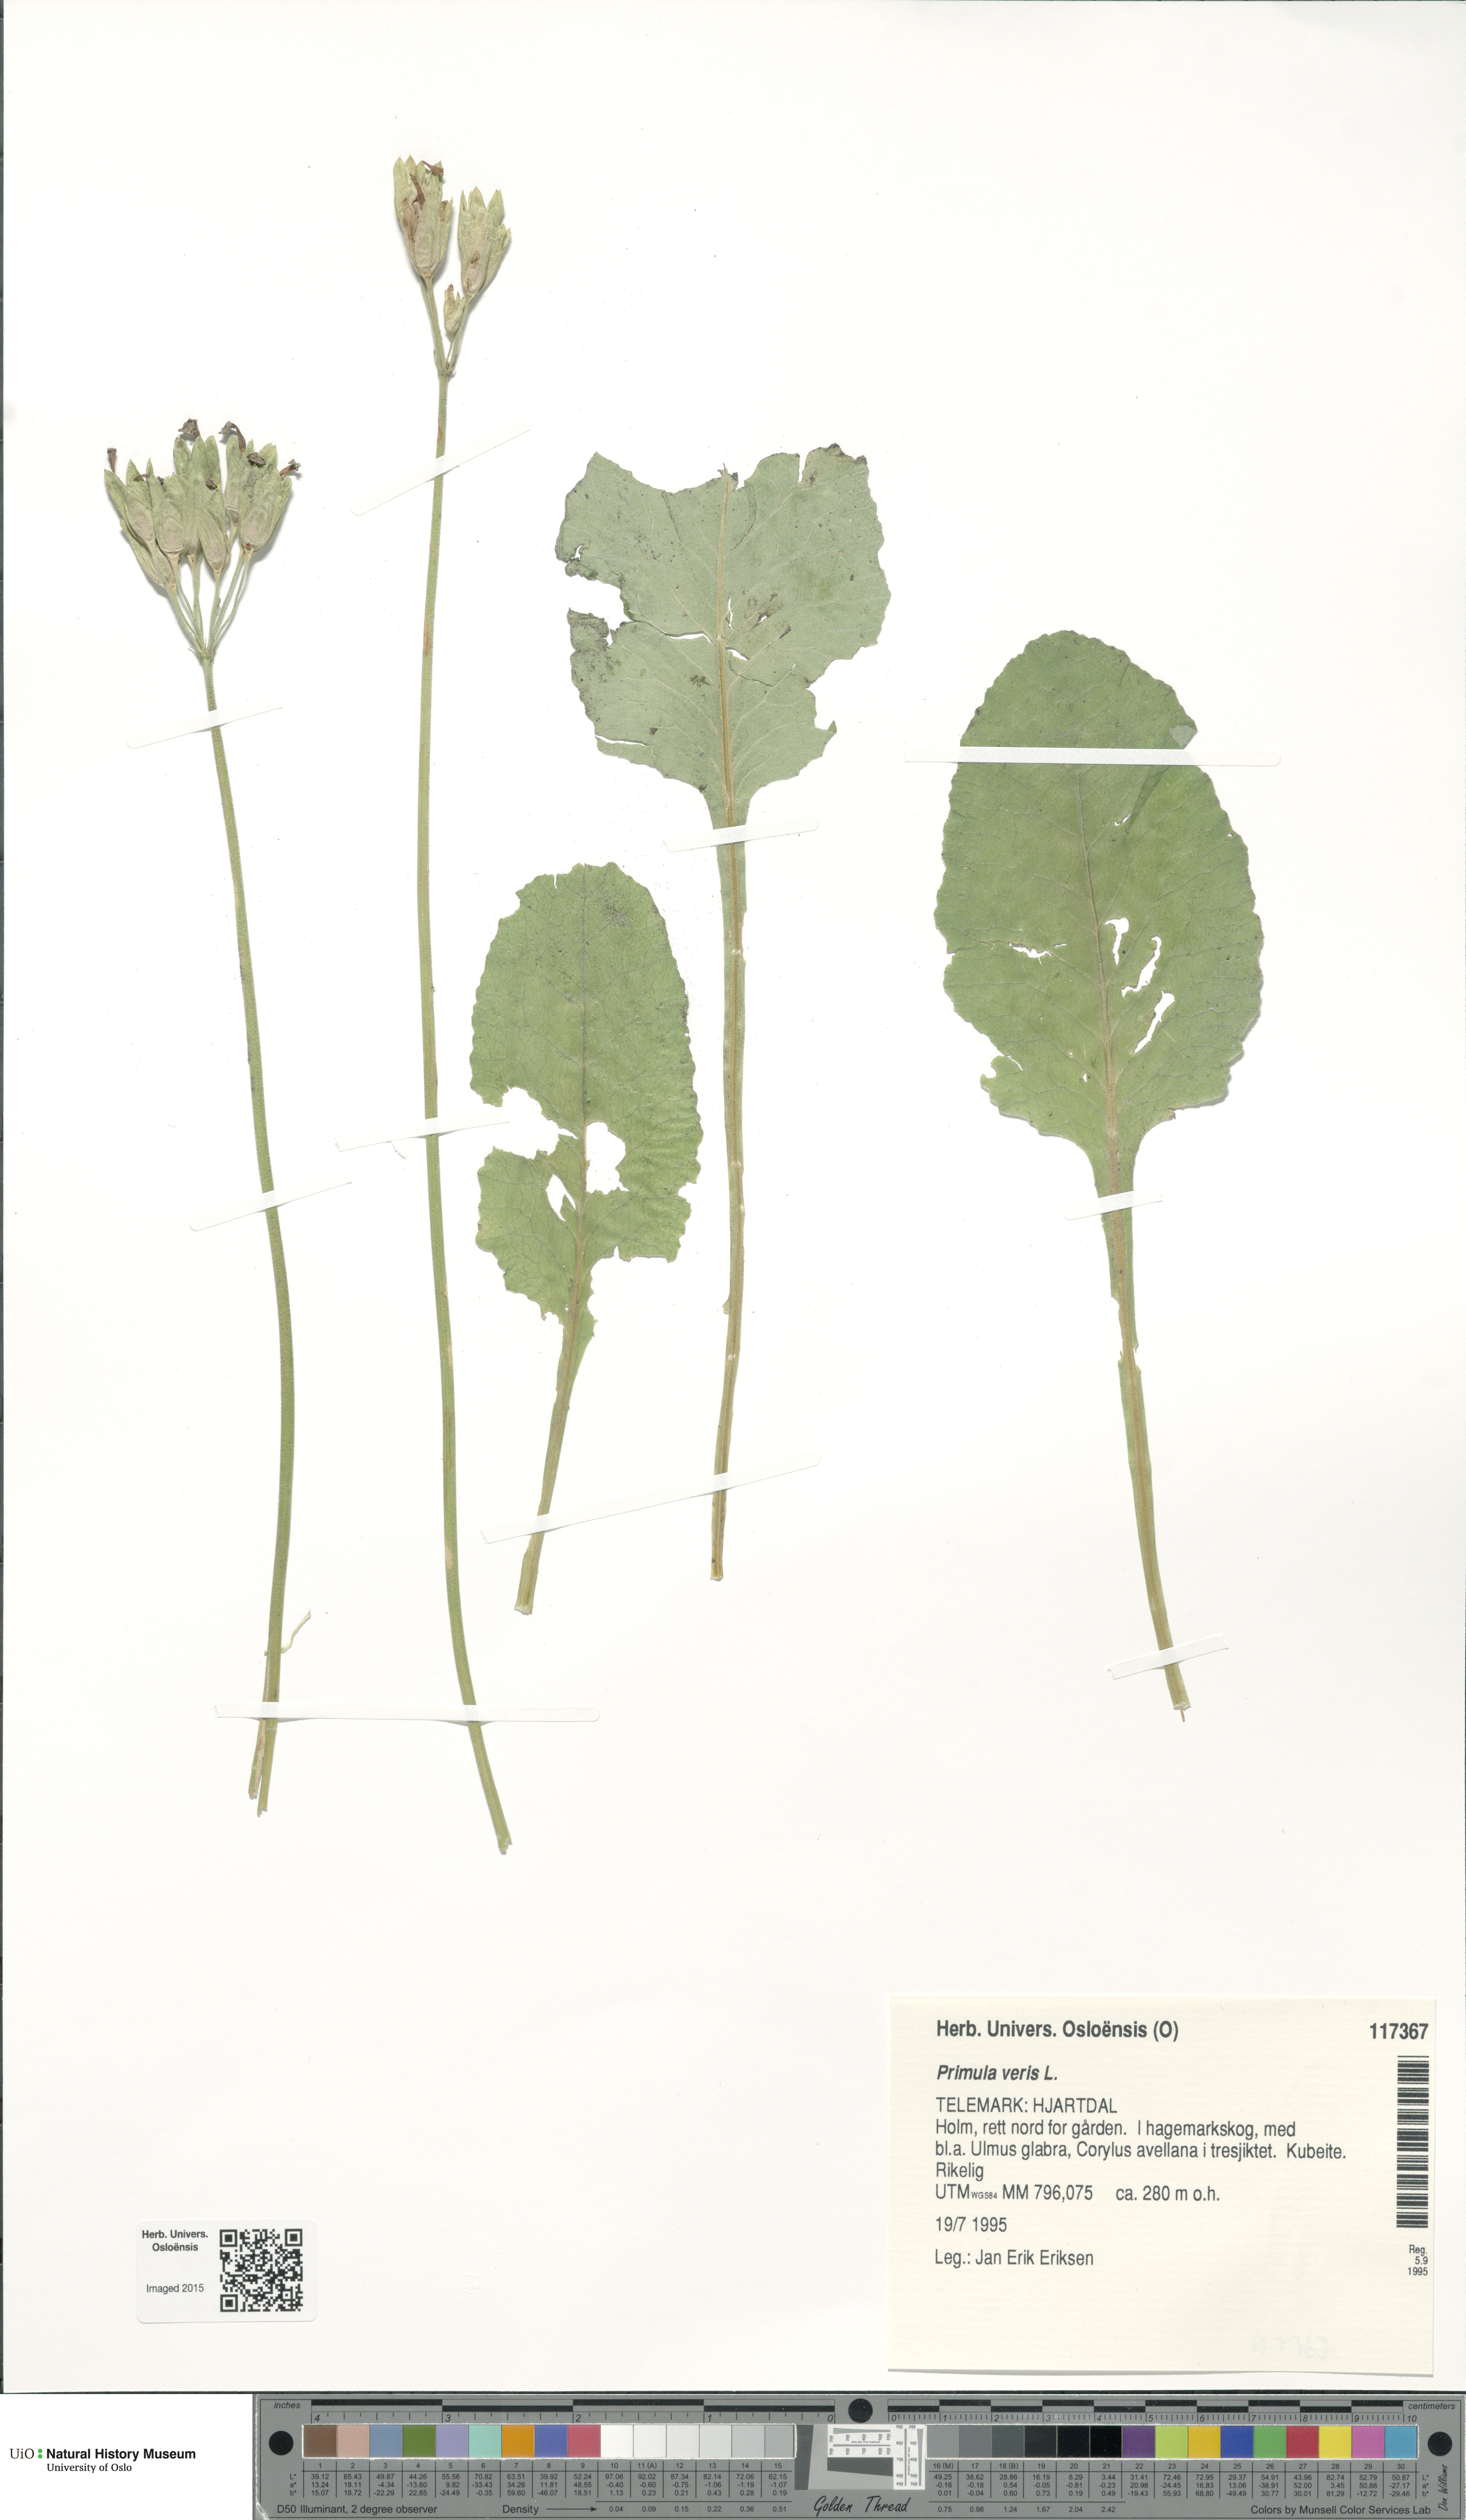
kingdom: Plantae
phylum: Tracheophyta
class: Magnoliopsida
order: Ericales
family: Primulaceae
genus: Primula
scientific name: Primula veris
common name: Cowslip
